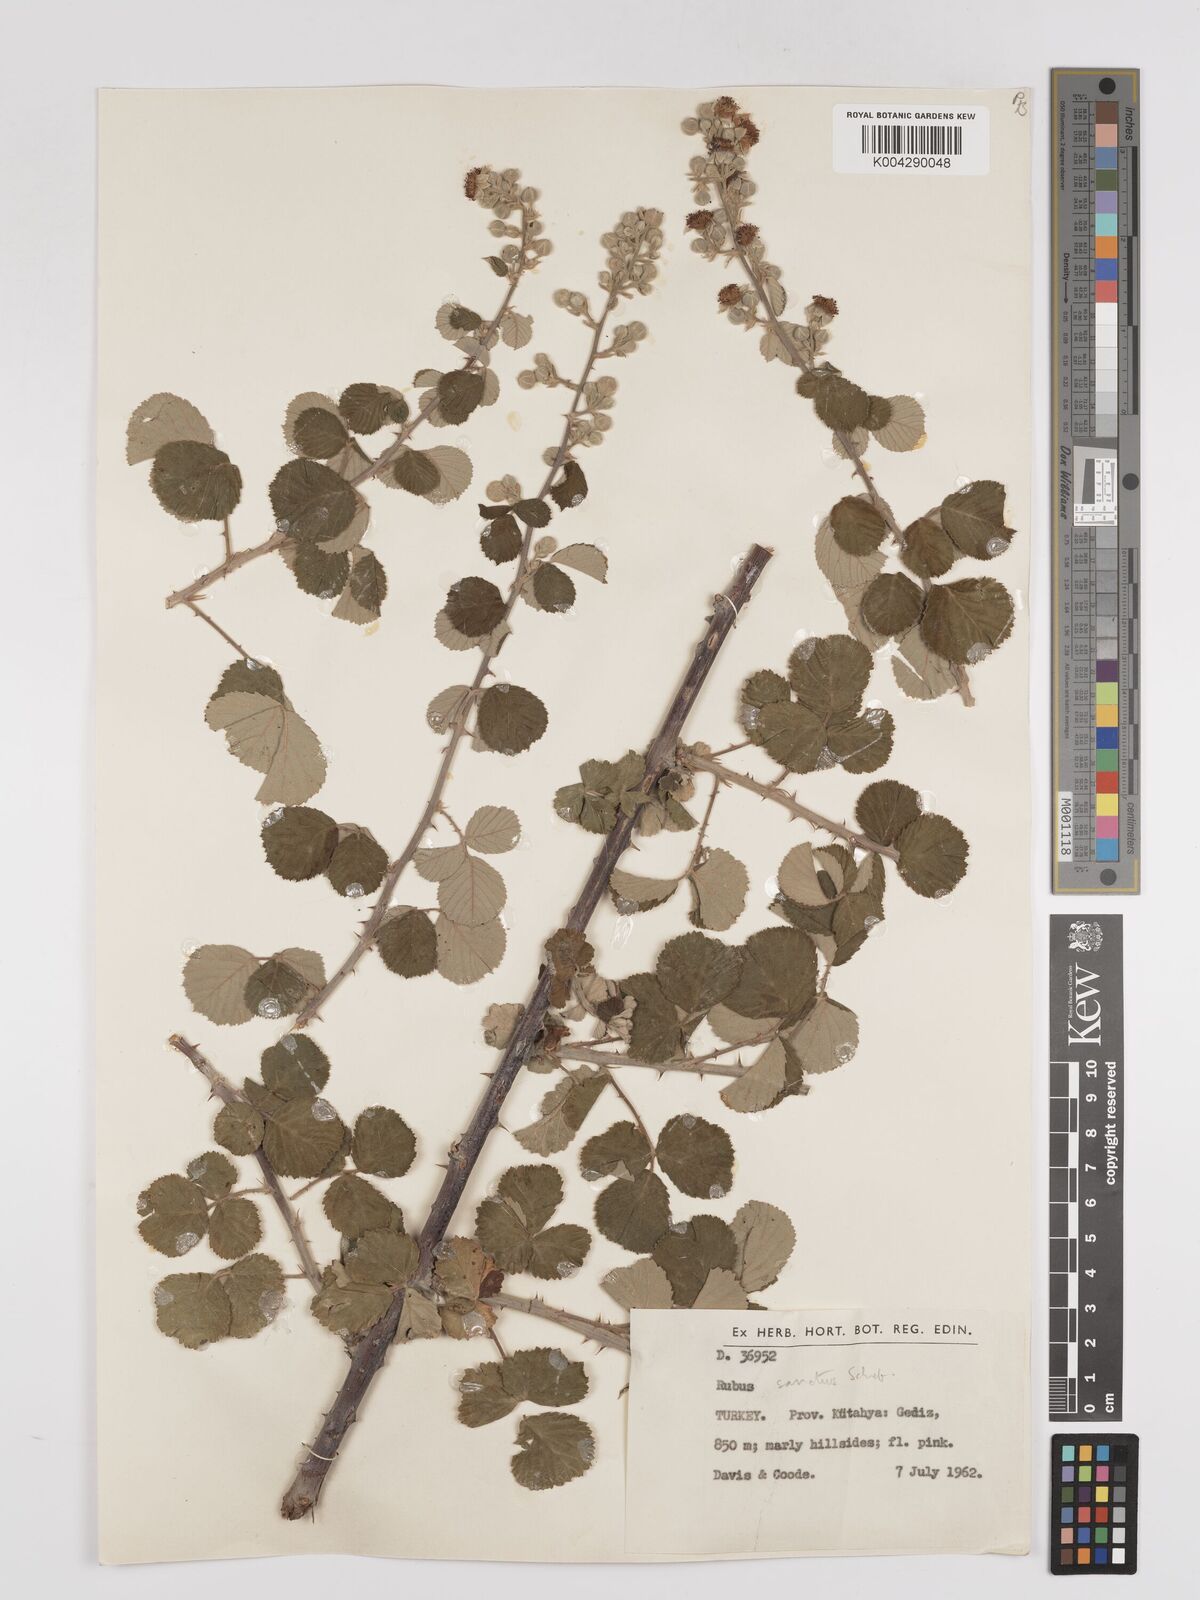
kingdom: Plantae
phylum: Tracheophyta
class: Magnoliopsida
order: Rosales
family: Rosaceae
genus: Rubus
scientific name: Rubus sanctus
